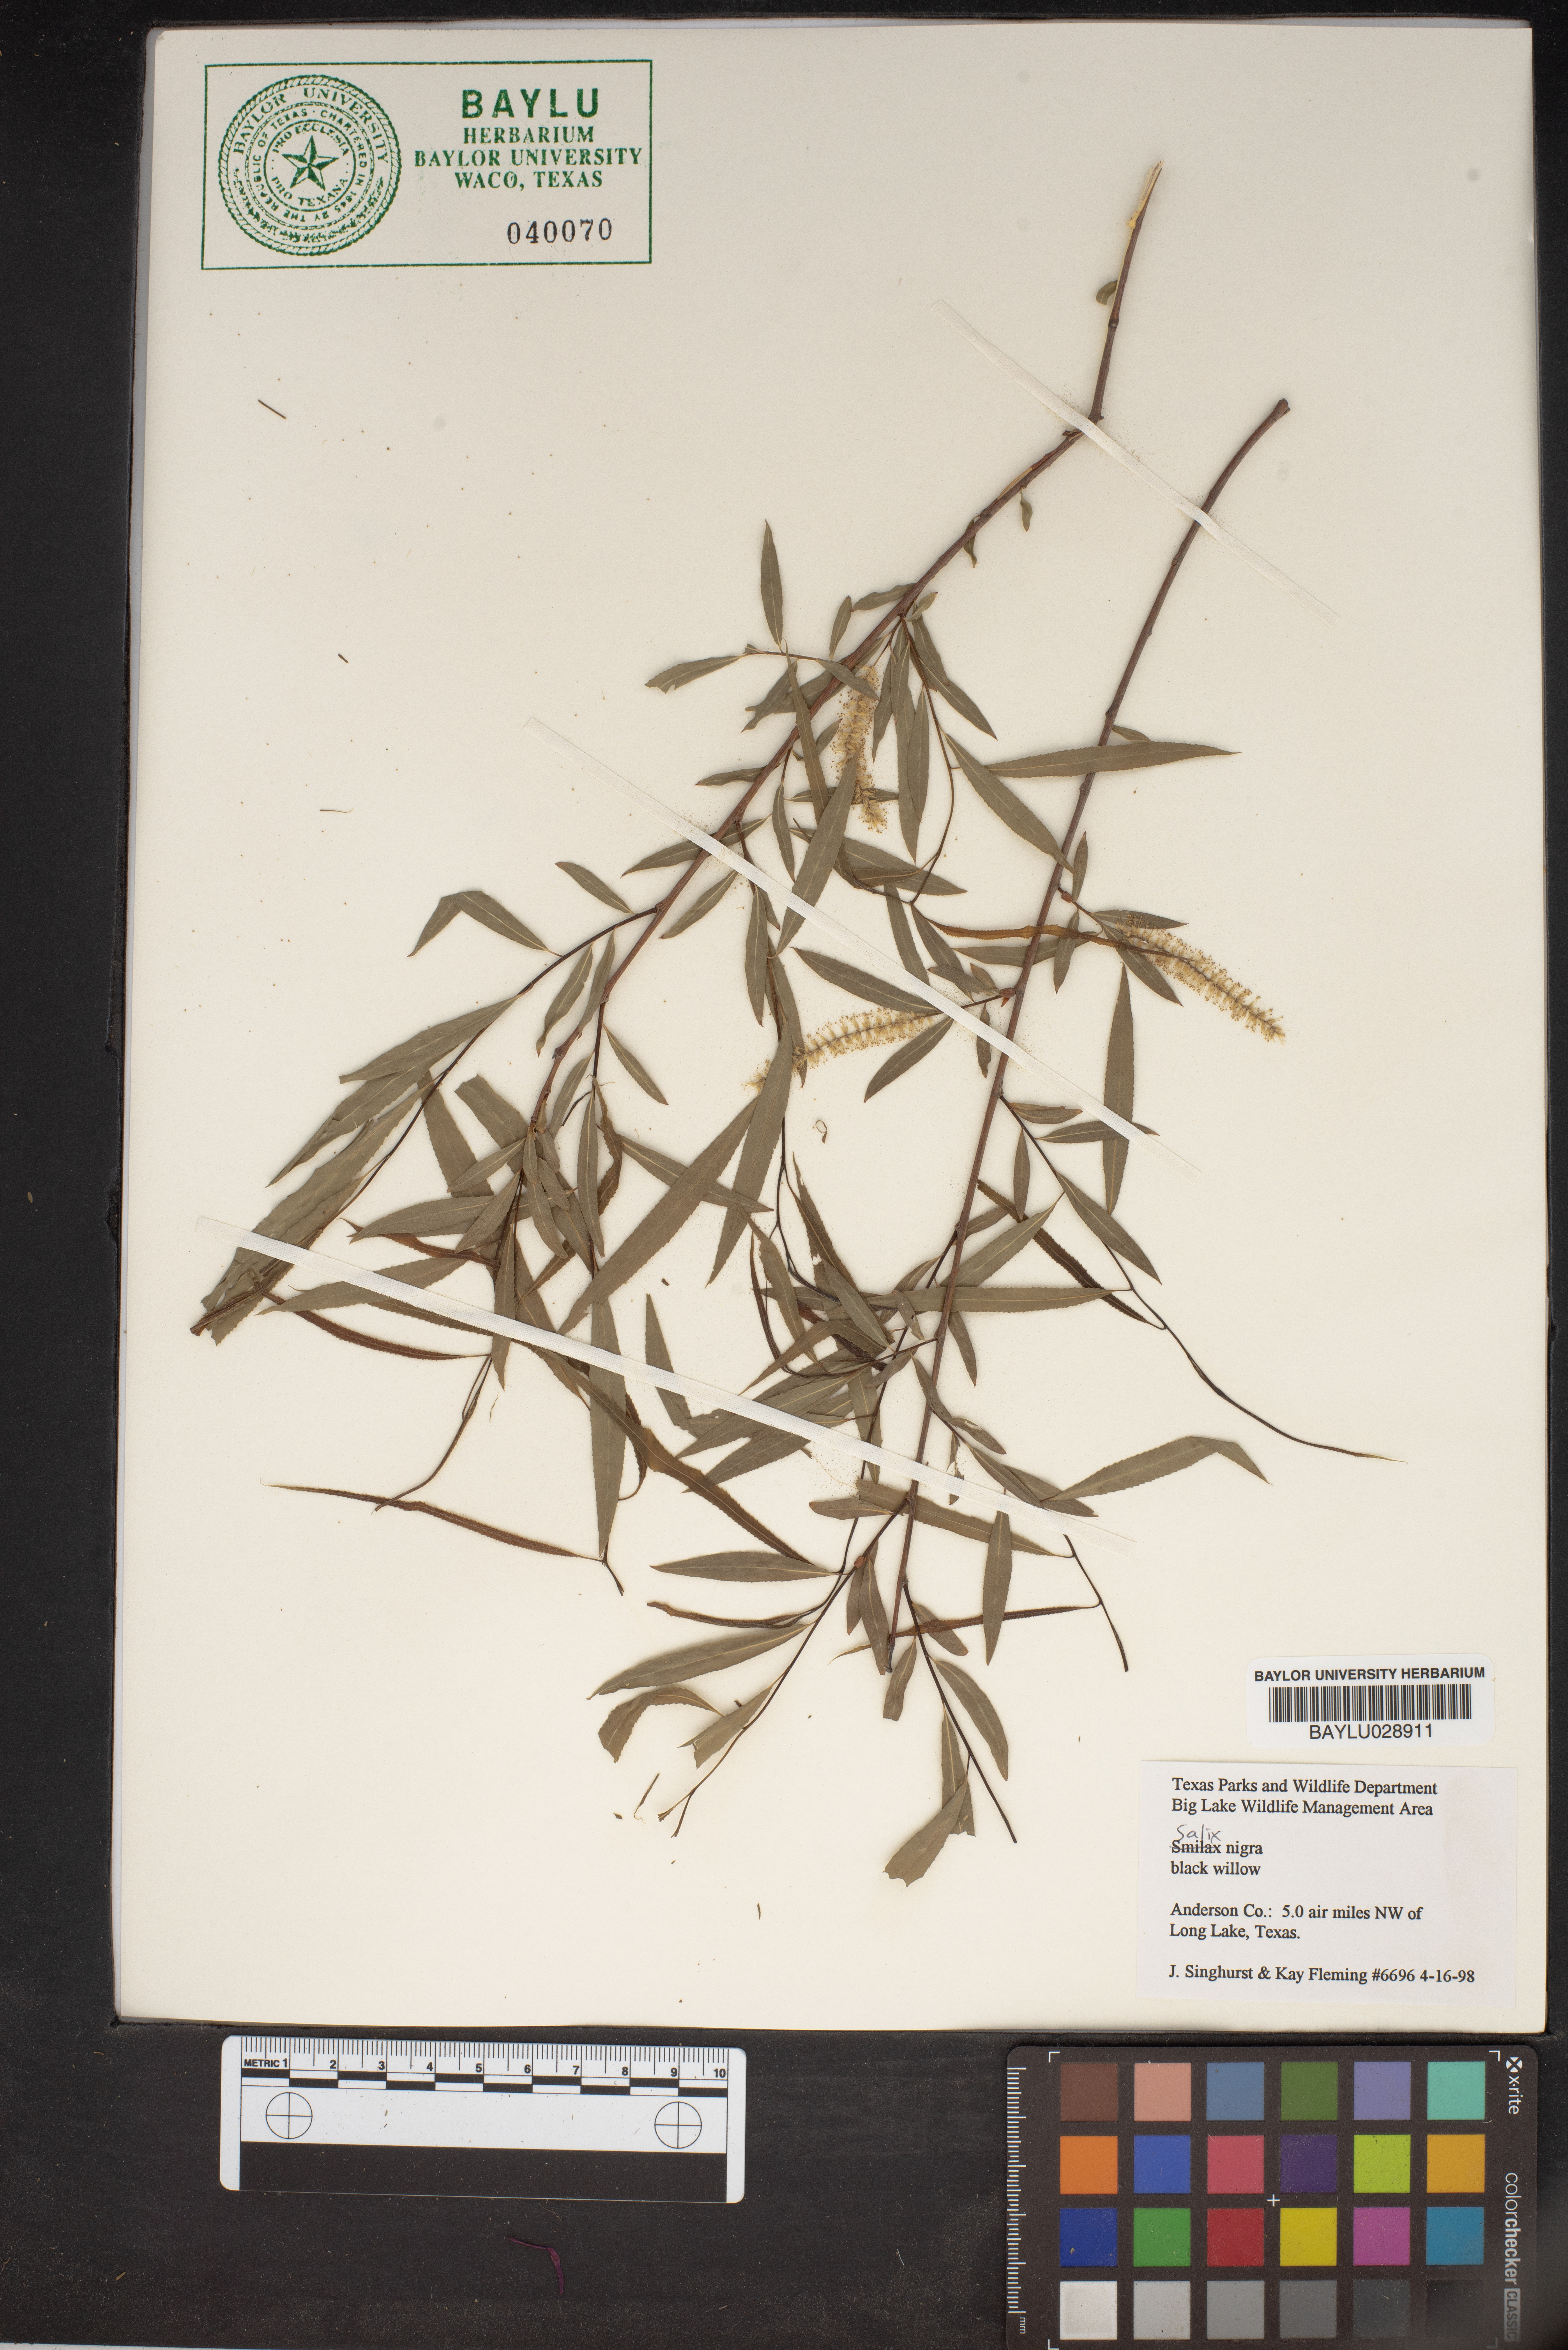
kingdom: Plantae
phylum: Tracheophyta
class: Magnoliopsida
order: Malpighiales
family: Salicaceae
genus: Salix
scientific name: Salix nigra
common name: Black willow
